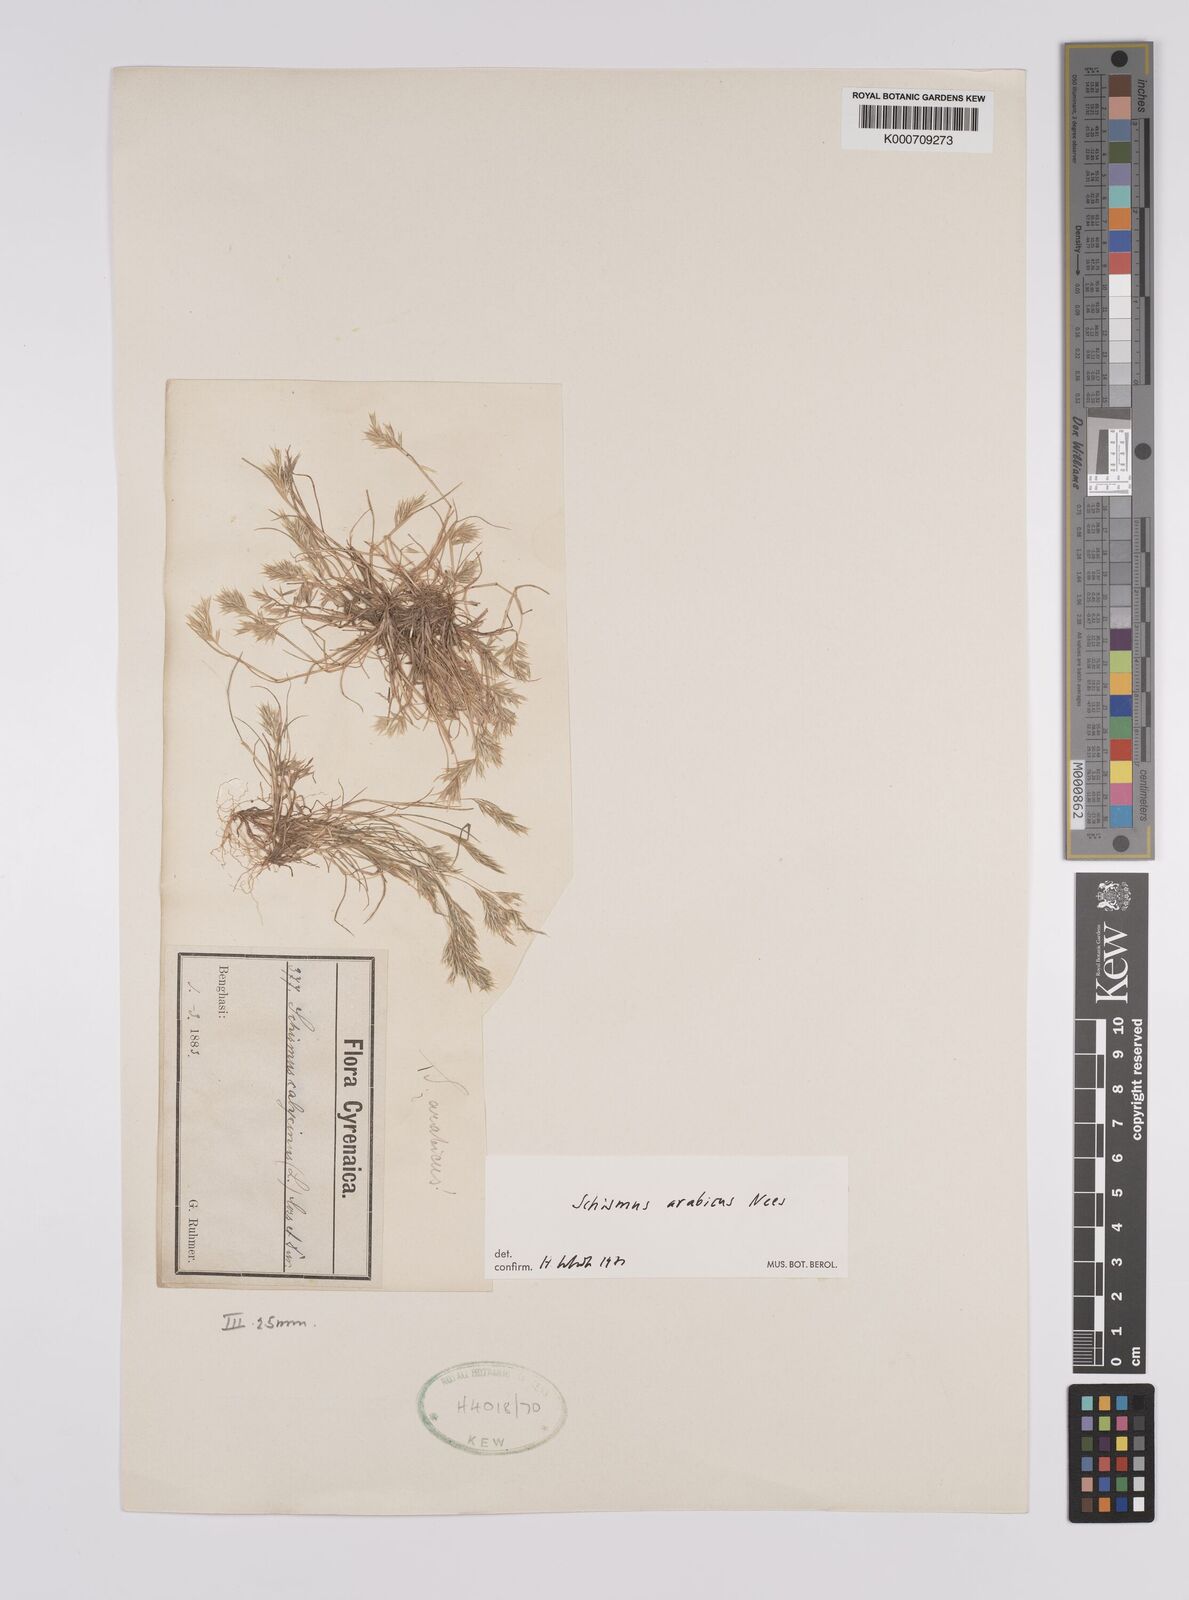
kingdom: Plantae
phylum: Tracheophyta
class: Liliopsida
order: Poales
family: Poaceae
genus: Schismus
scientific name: Schismus arabicus
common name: Arabian schismus
